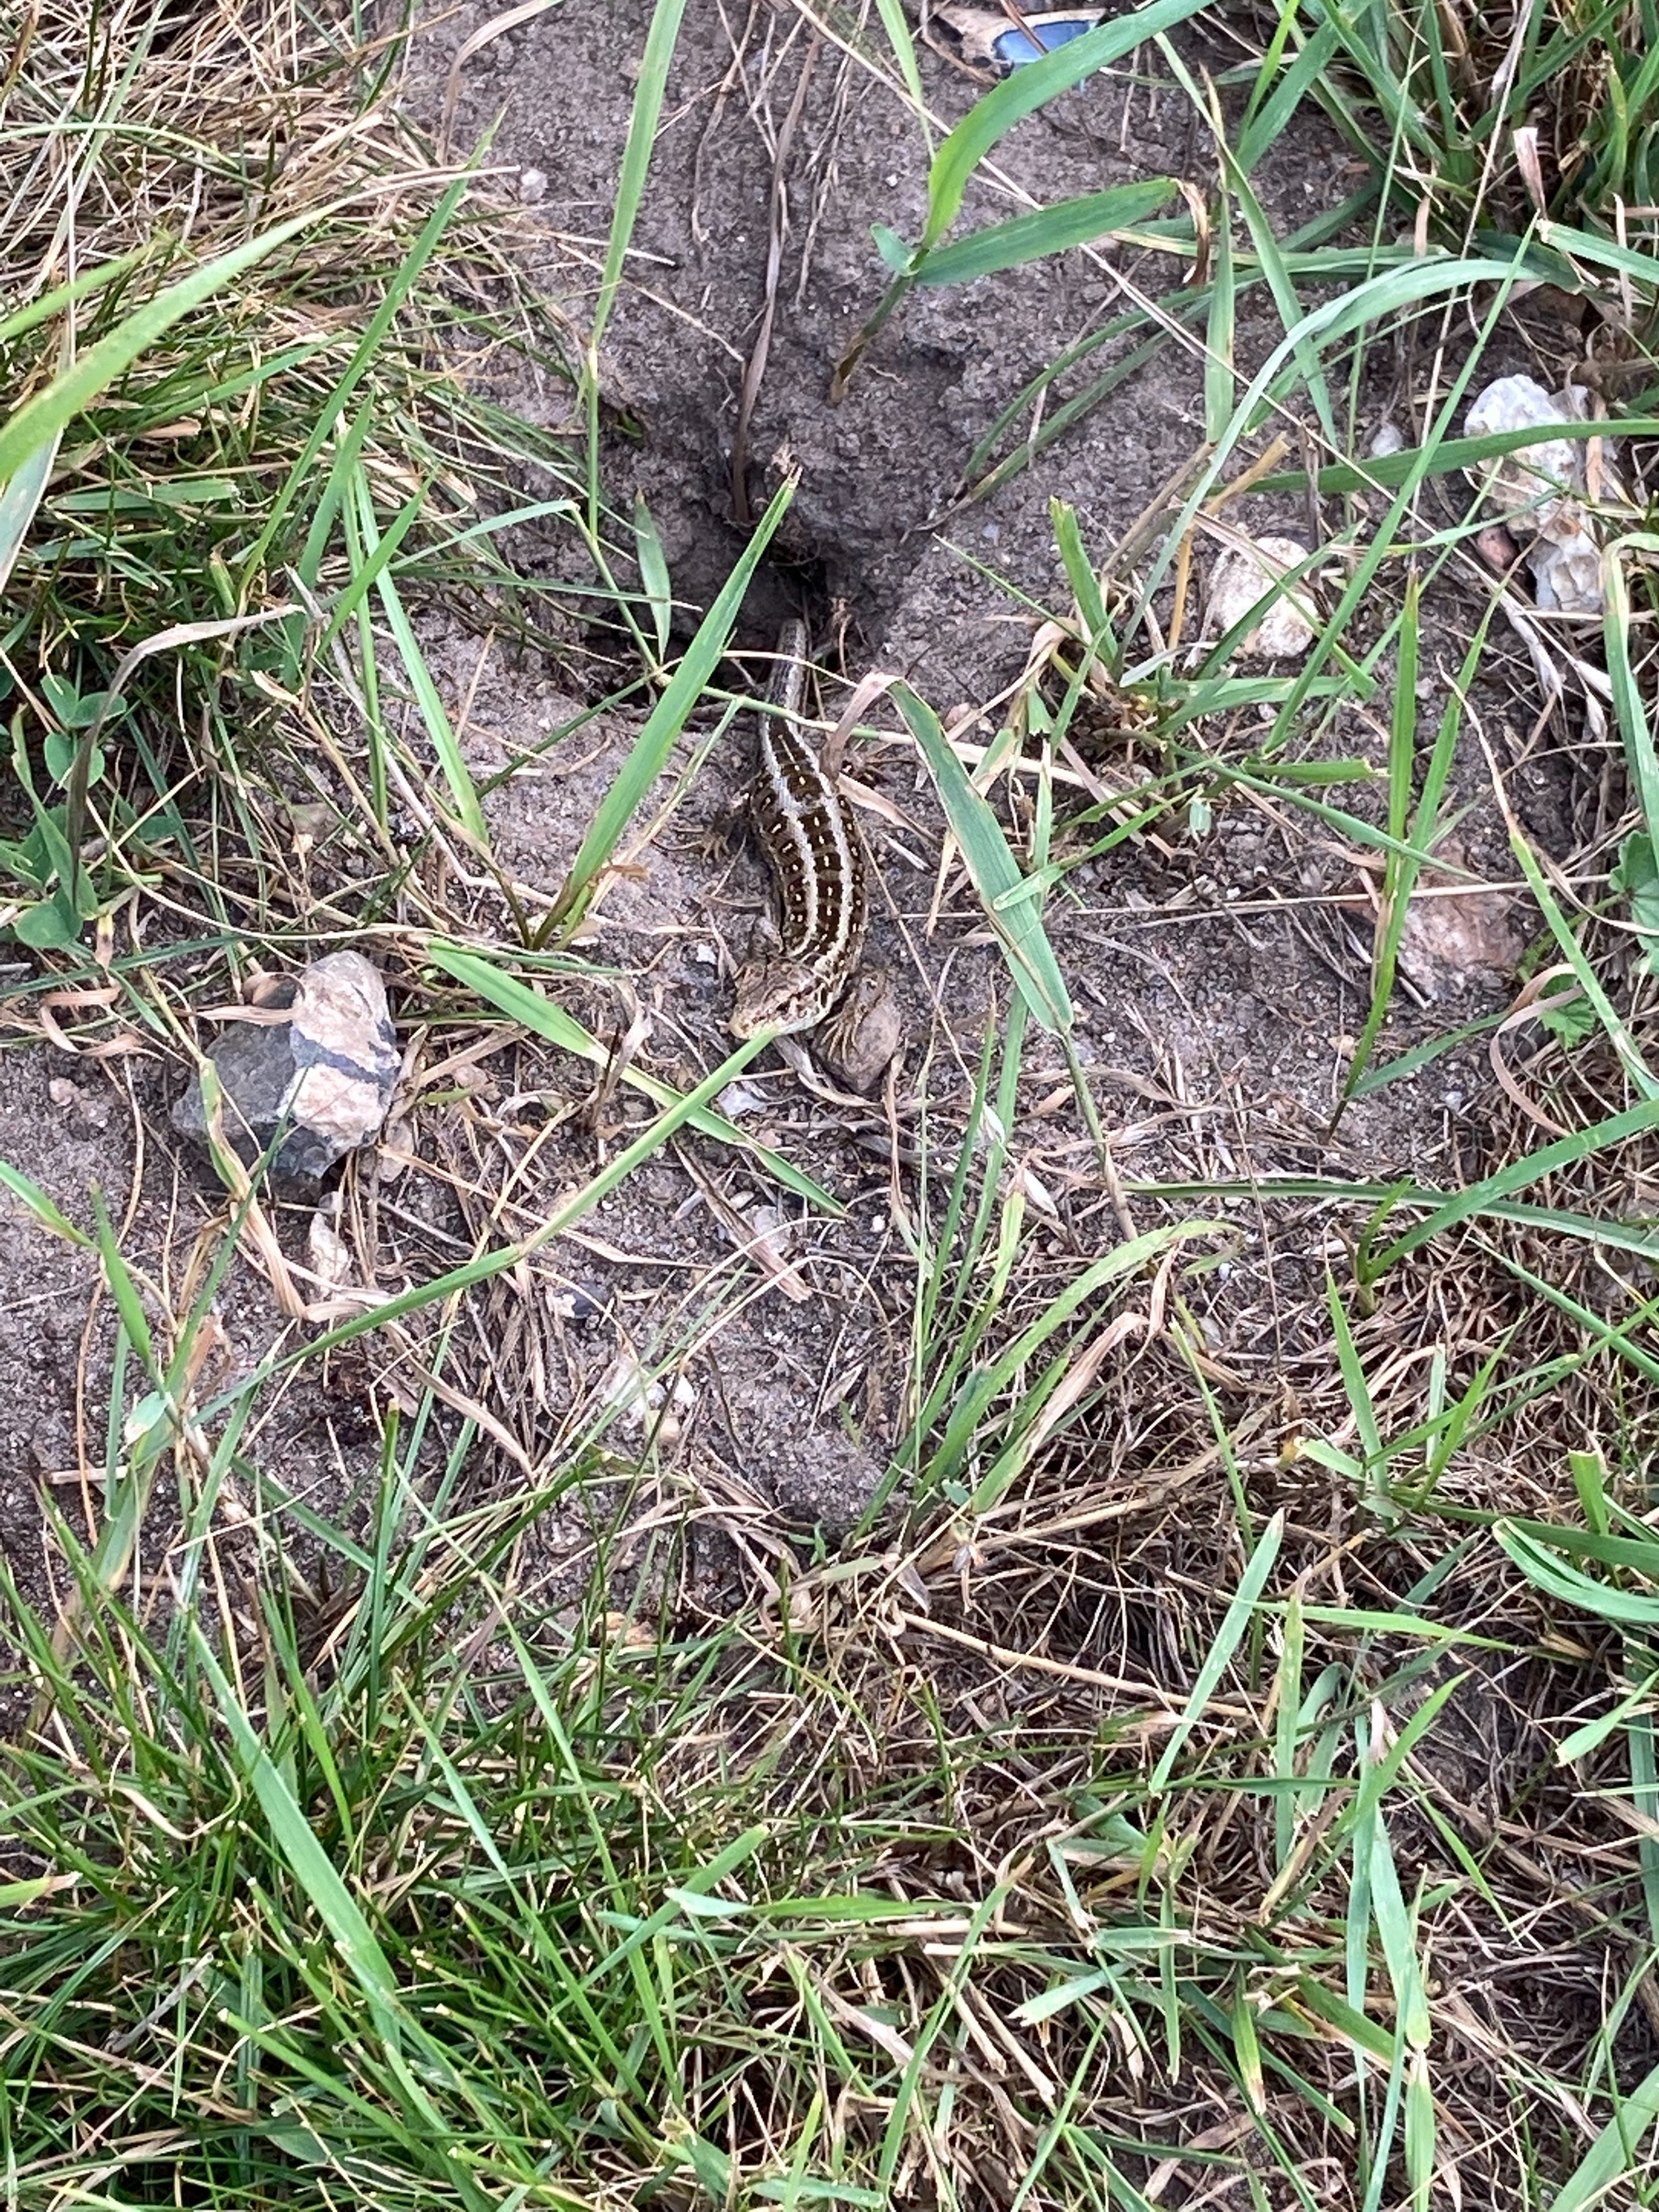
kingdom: Animalia
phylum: Chordata
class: Squamata
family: Lacertidae
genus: Lacerta
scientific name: Lacerta agilis
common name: Markfirben
